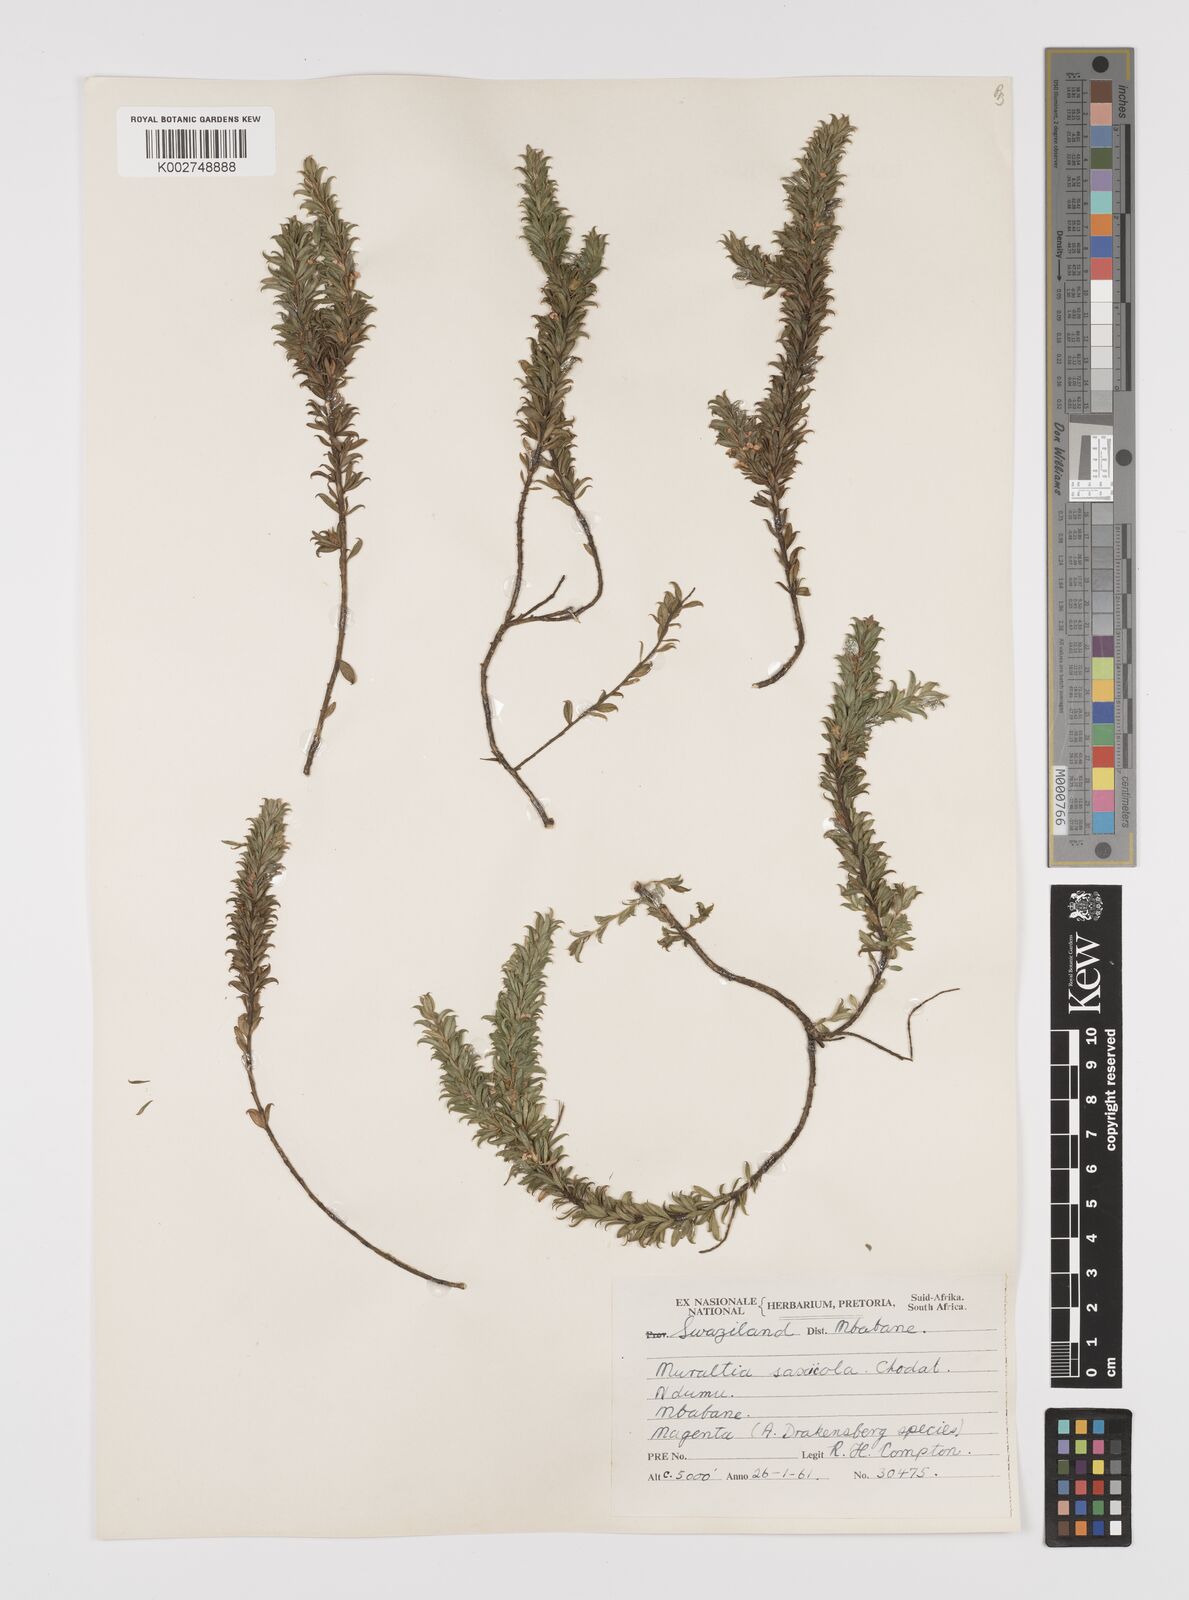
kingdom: Plantae
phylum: Tracheophyta
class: Magnoliopsida
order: Fabales
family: Polygalaceae
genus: Muraltia
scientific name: Muraltia saxicola
